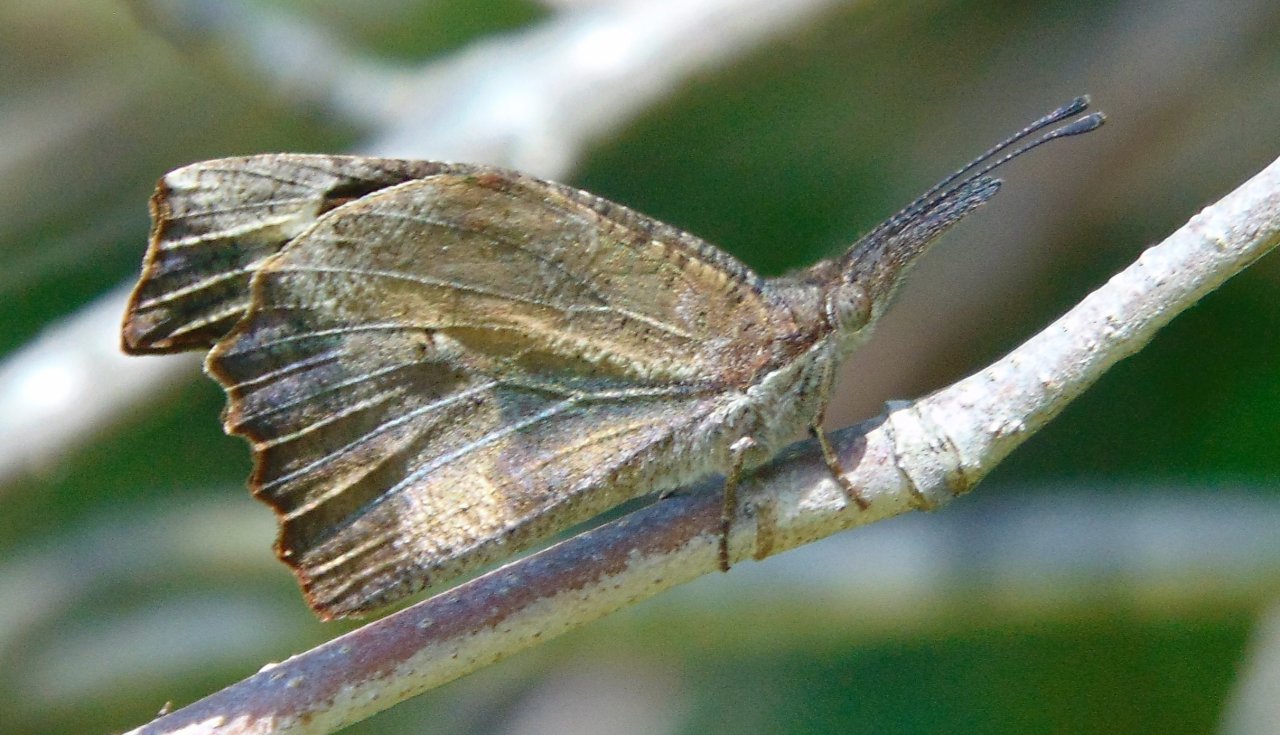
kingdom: Animalia
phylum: Arthropoda
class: Insecta
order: Lepidoptera
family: Nymphalidae
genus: Libytheana
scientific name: Libytheana carinenta
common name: American Snout
